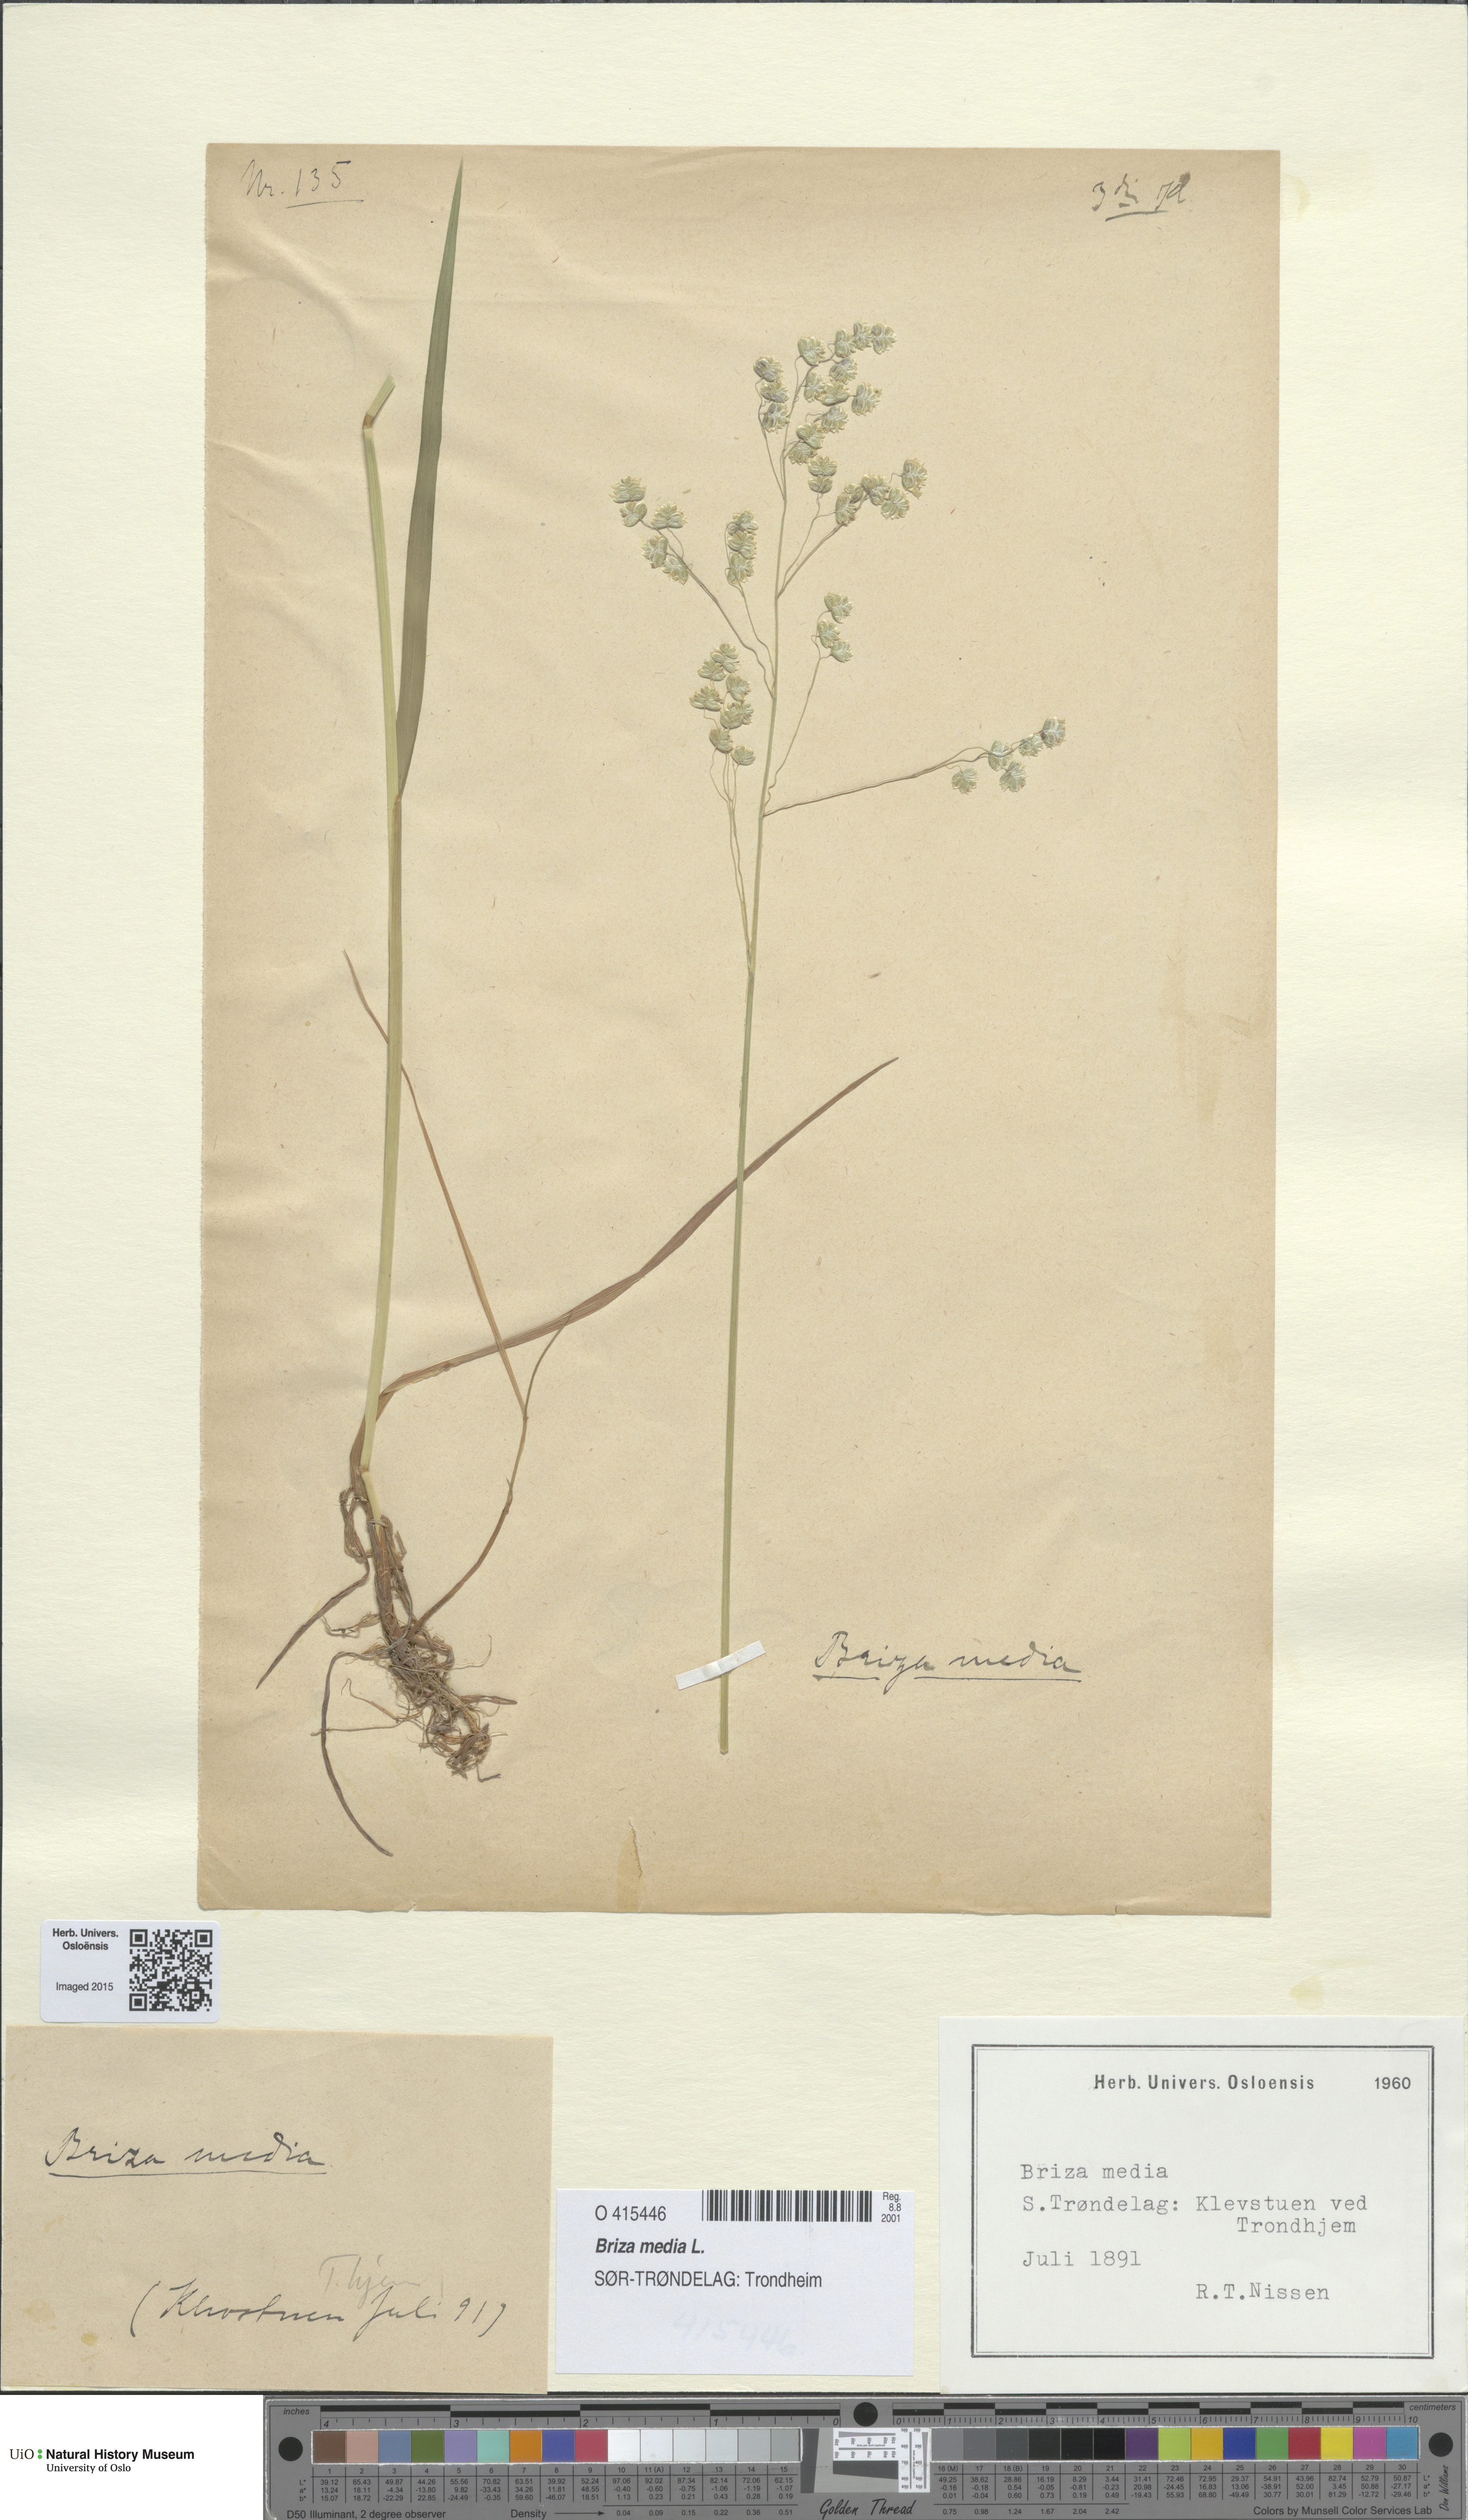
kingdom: Plantae
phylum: Tracheophyta
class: Liliopsida
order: Poales
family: Poaceae
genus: Briza
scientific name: Briza media
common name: Quaking grass
